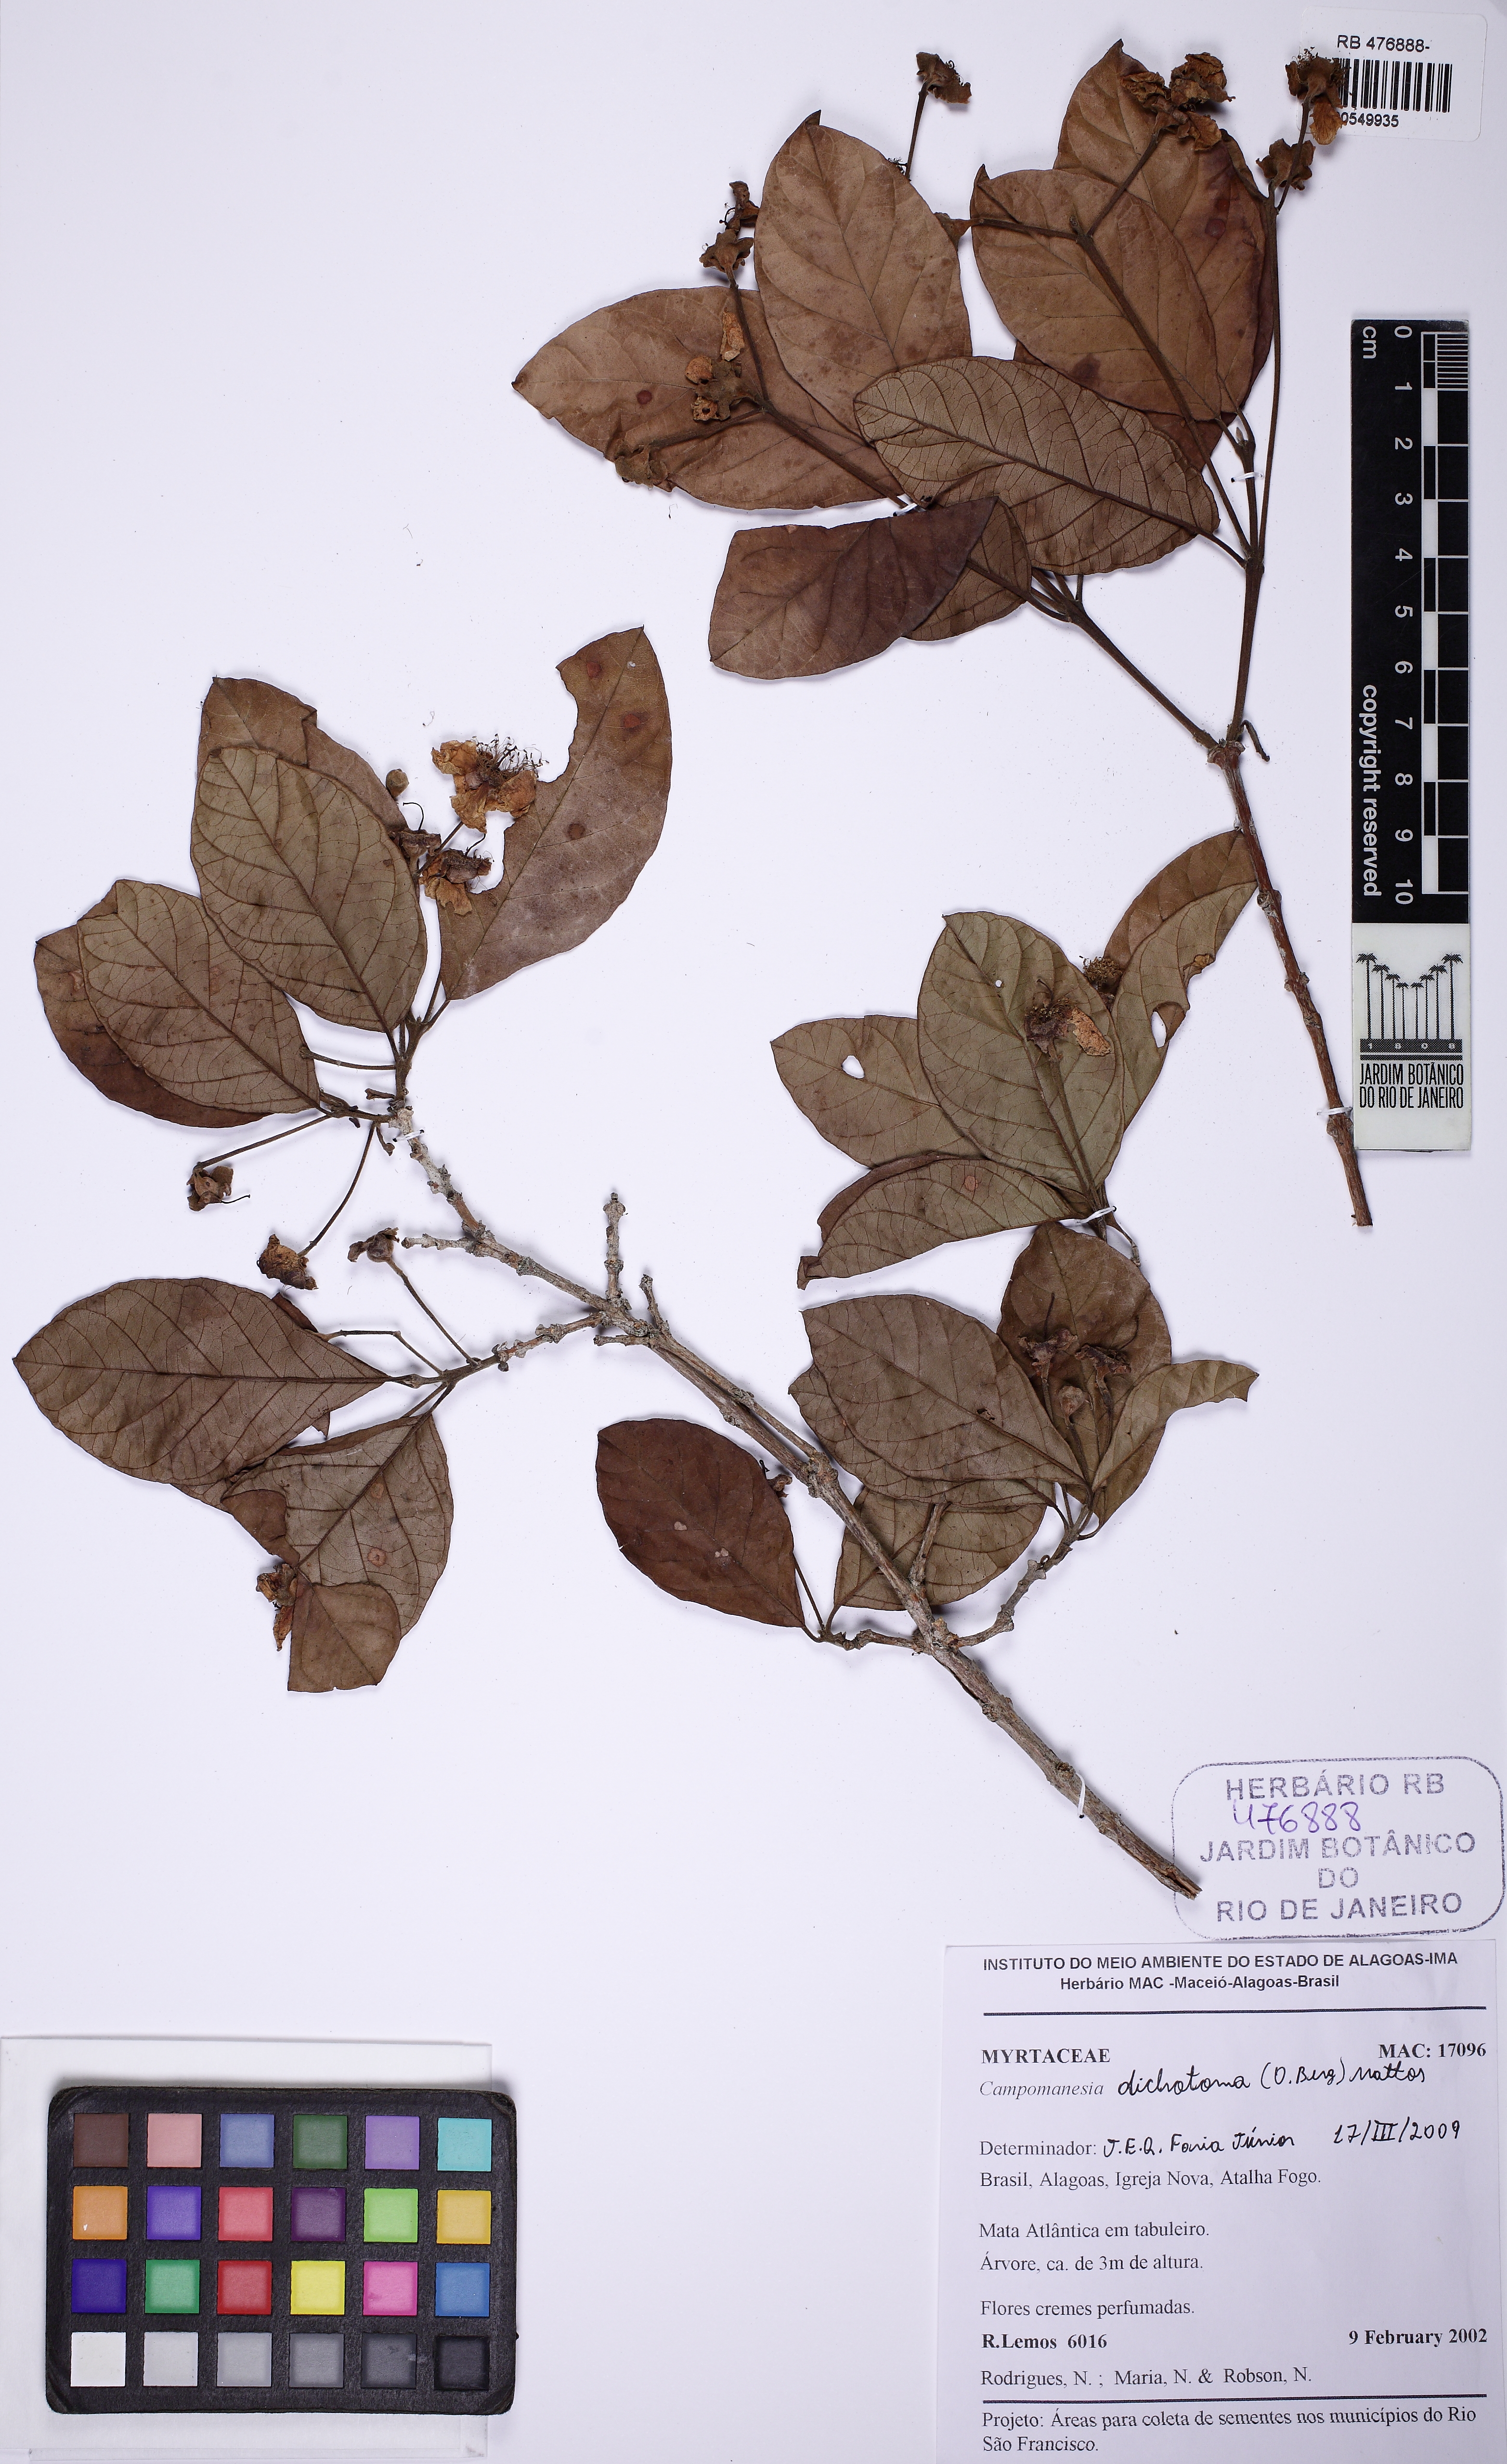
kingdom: Plantae
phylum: Tracheophyta
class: Magnoliopsida
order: Myrtales
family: Myrtaceae
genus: Campomanesia
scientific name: Campomanesia dichotoma
